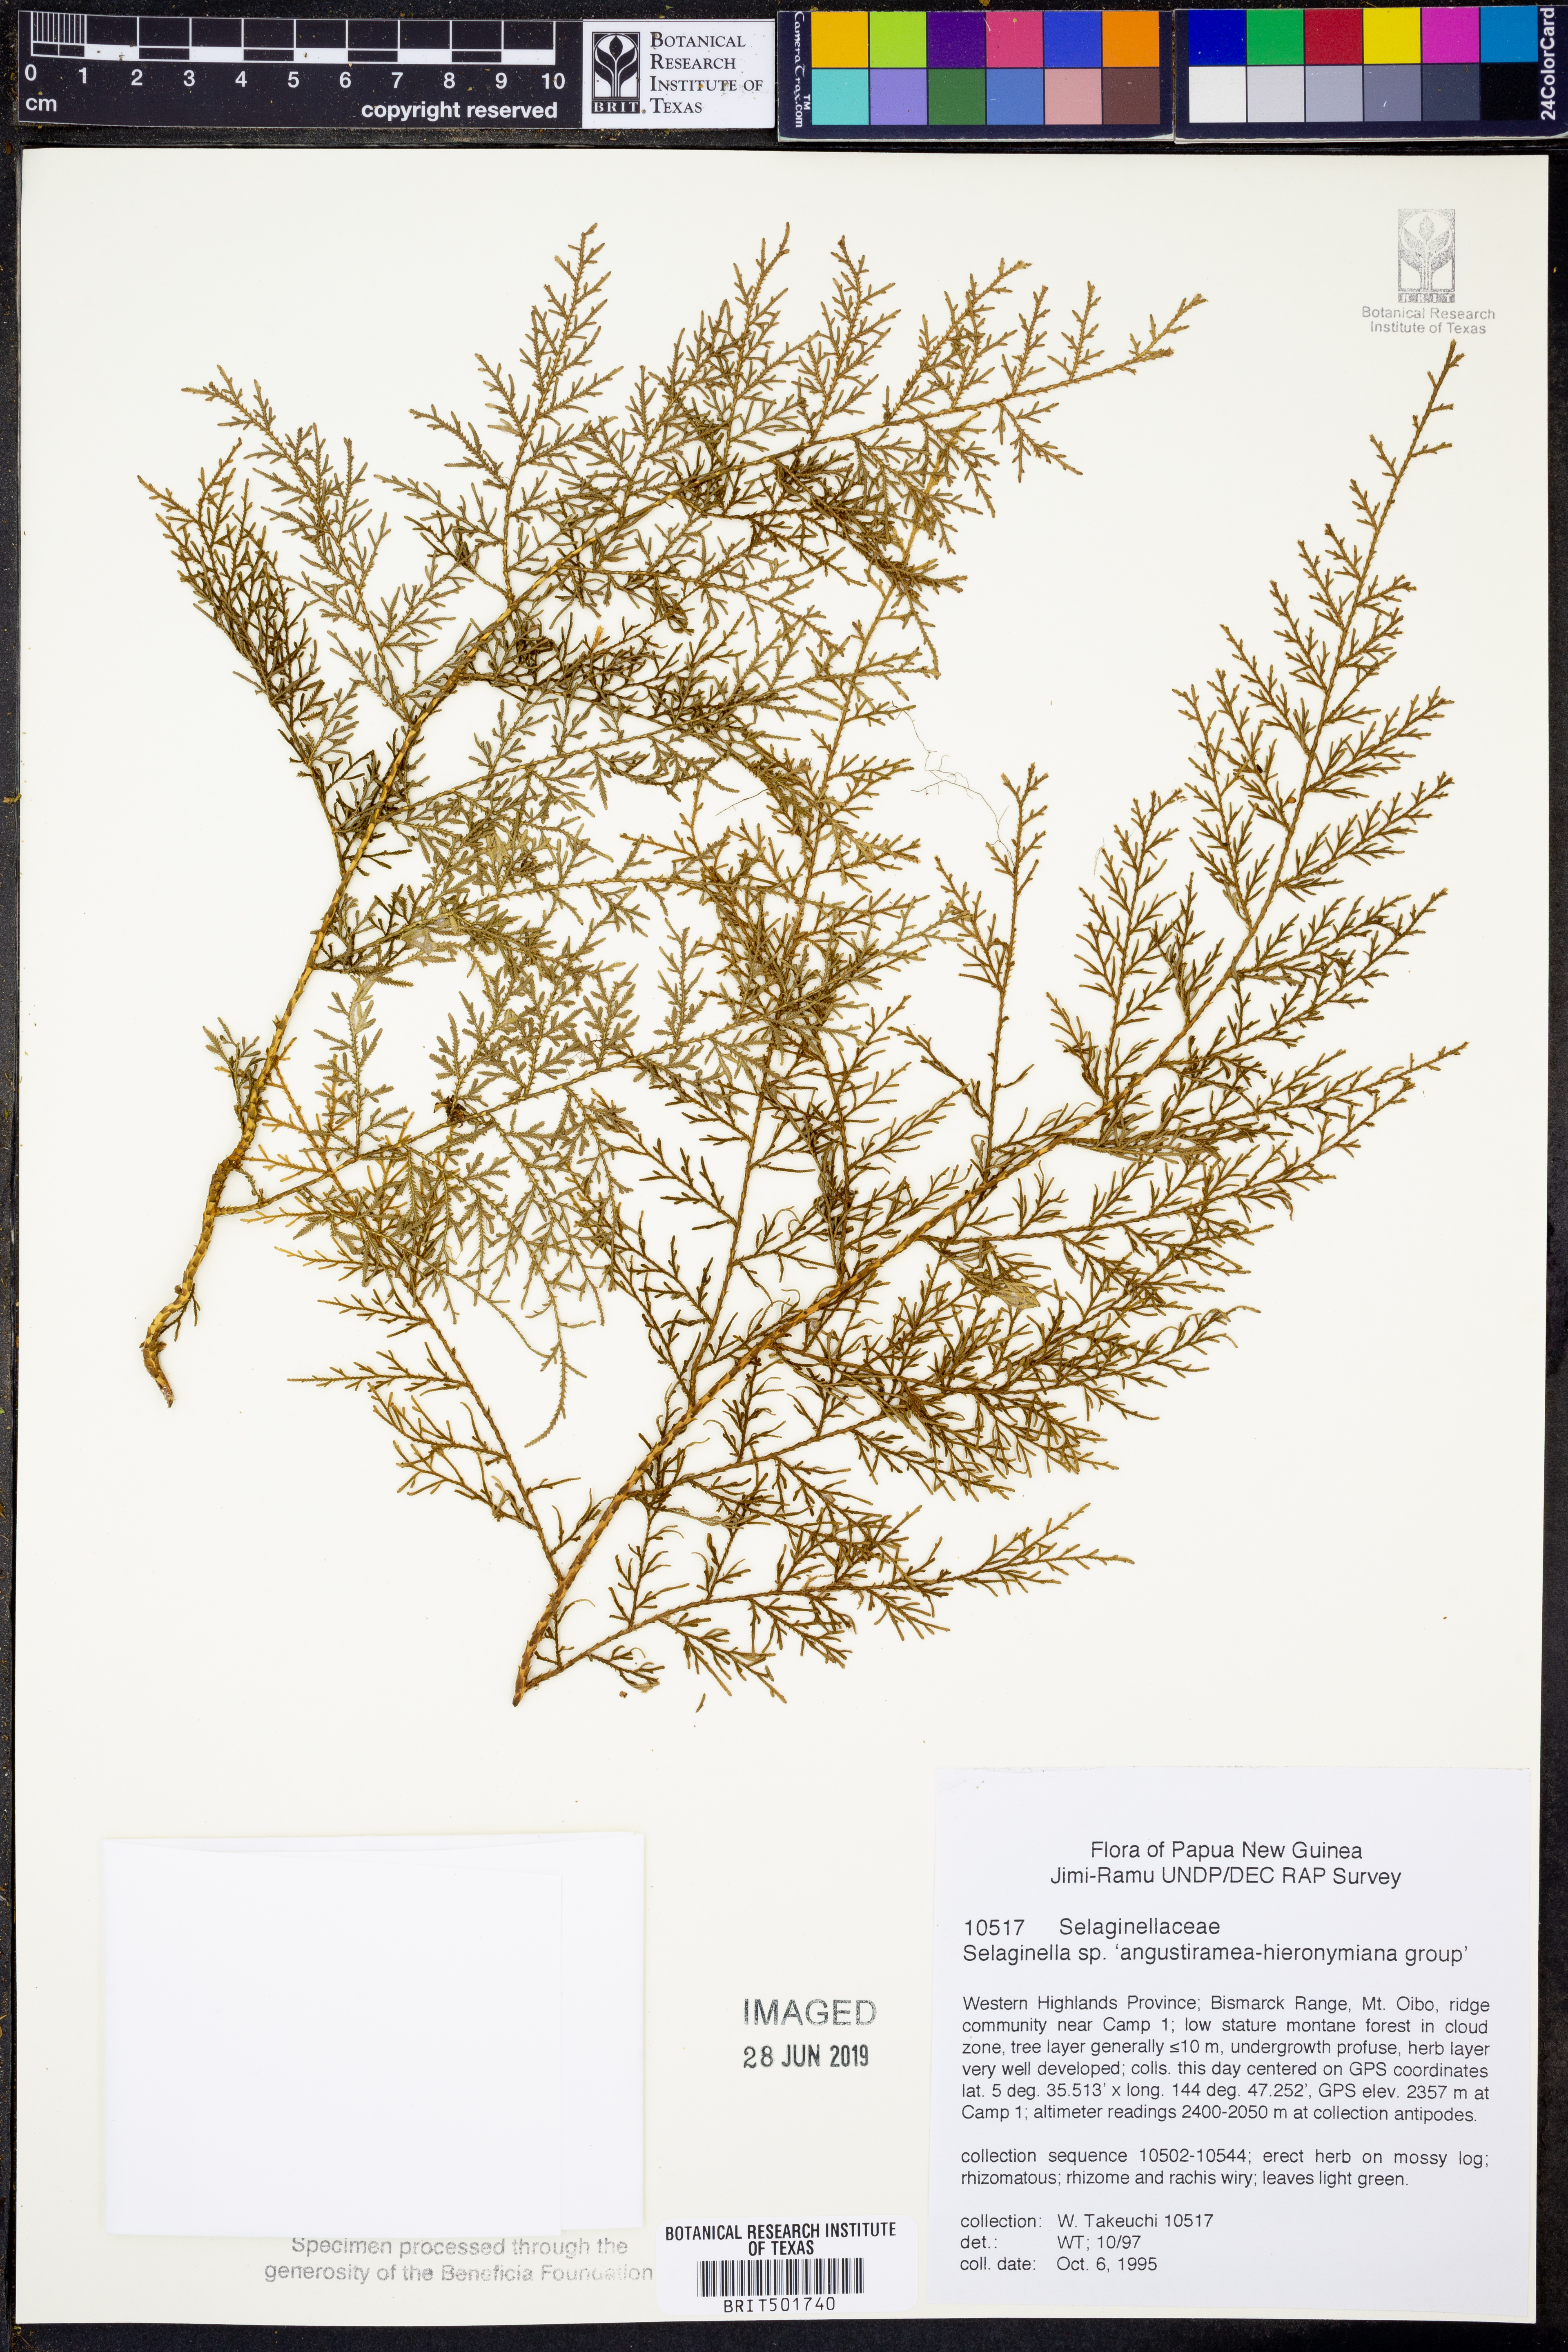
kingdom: Plantae
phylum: Tracheophyta
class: Lycopodiopsida
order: Selaginellales
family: Selaginellaceae
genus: Selaginella
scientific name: Selaginella
